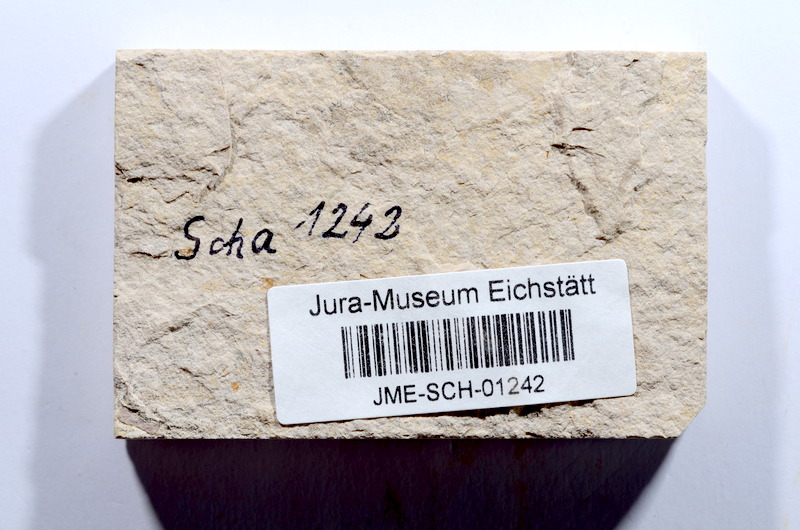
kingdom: Animalia
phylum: Chordata
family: Ascalaboidae
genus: Tharsis
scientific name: Tharsis dubius
